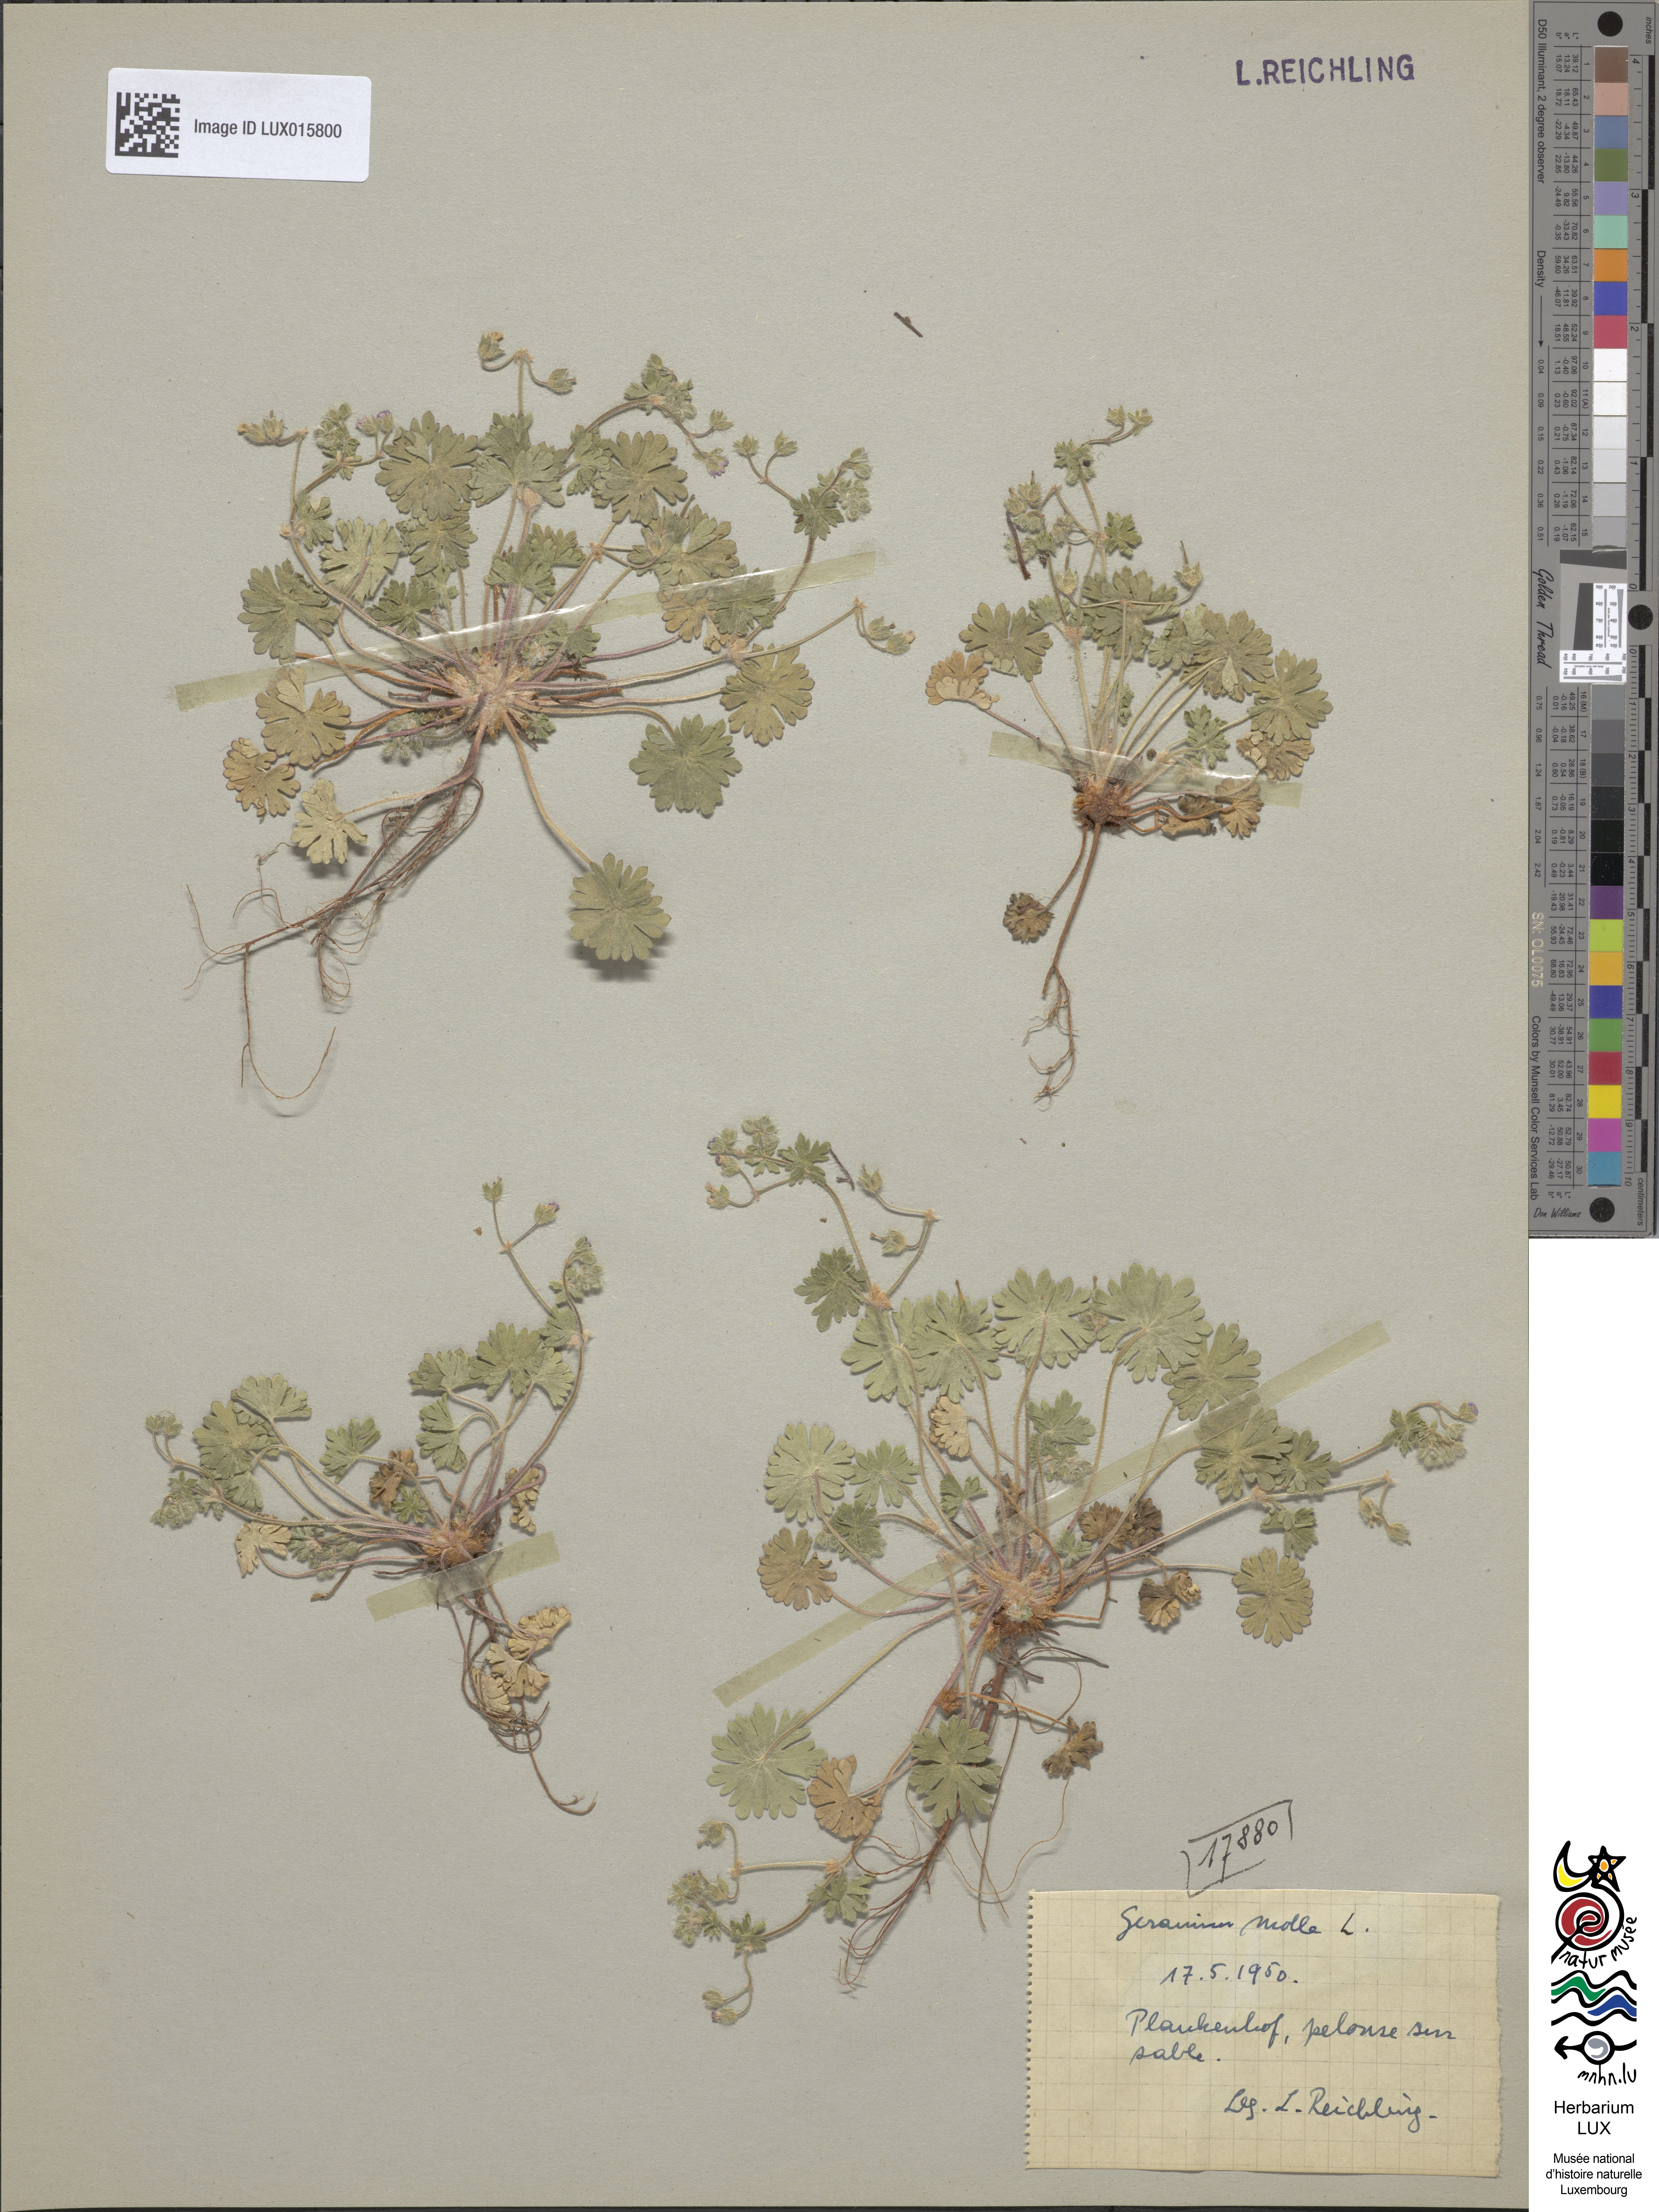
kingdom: Plantae
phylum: Tracheophyta
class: Magnoliopsida
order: Geraniales
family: Geraniaceae
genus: Geranium
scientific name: Geranium molle
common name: Dove's-foot crane's-bill
